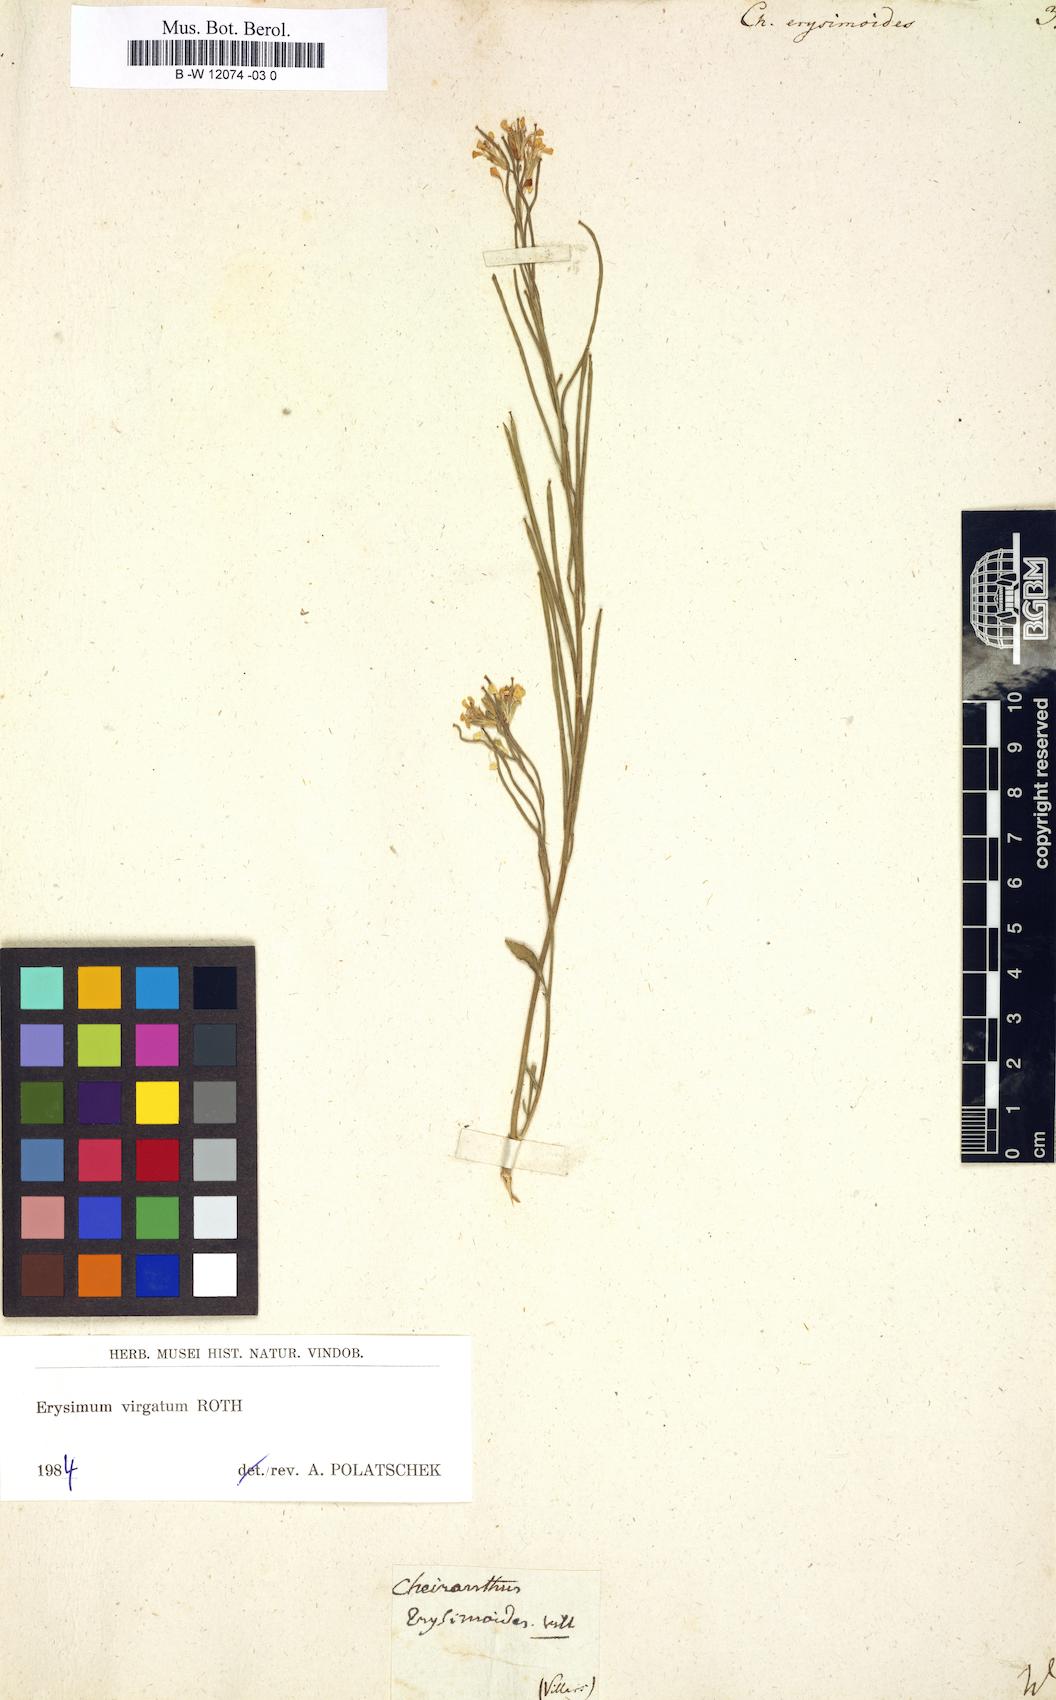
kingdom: Plantae
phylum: Tracheophyta
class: Magnoliopsida
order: Brassicales
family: Brassicaceae
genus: Erysimum
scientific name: Erysimum
